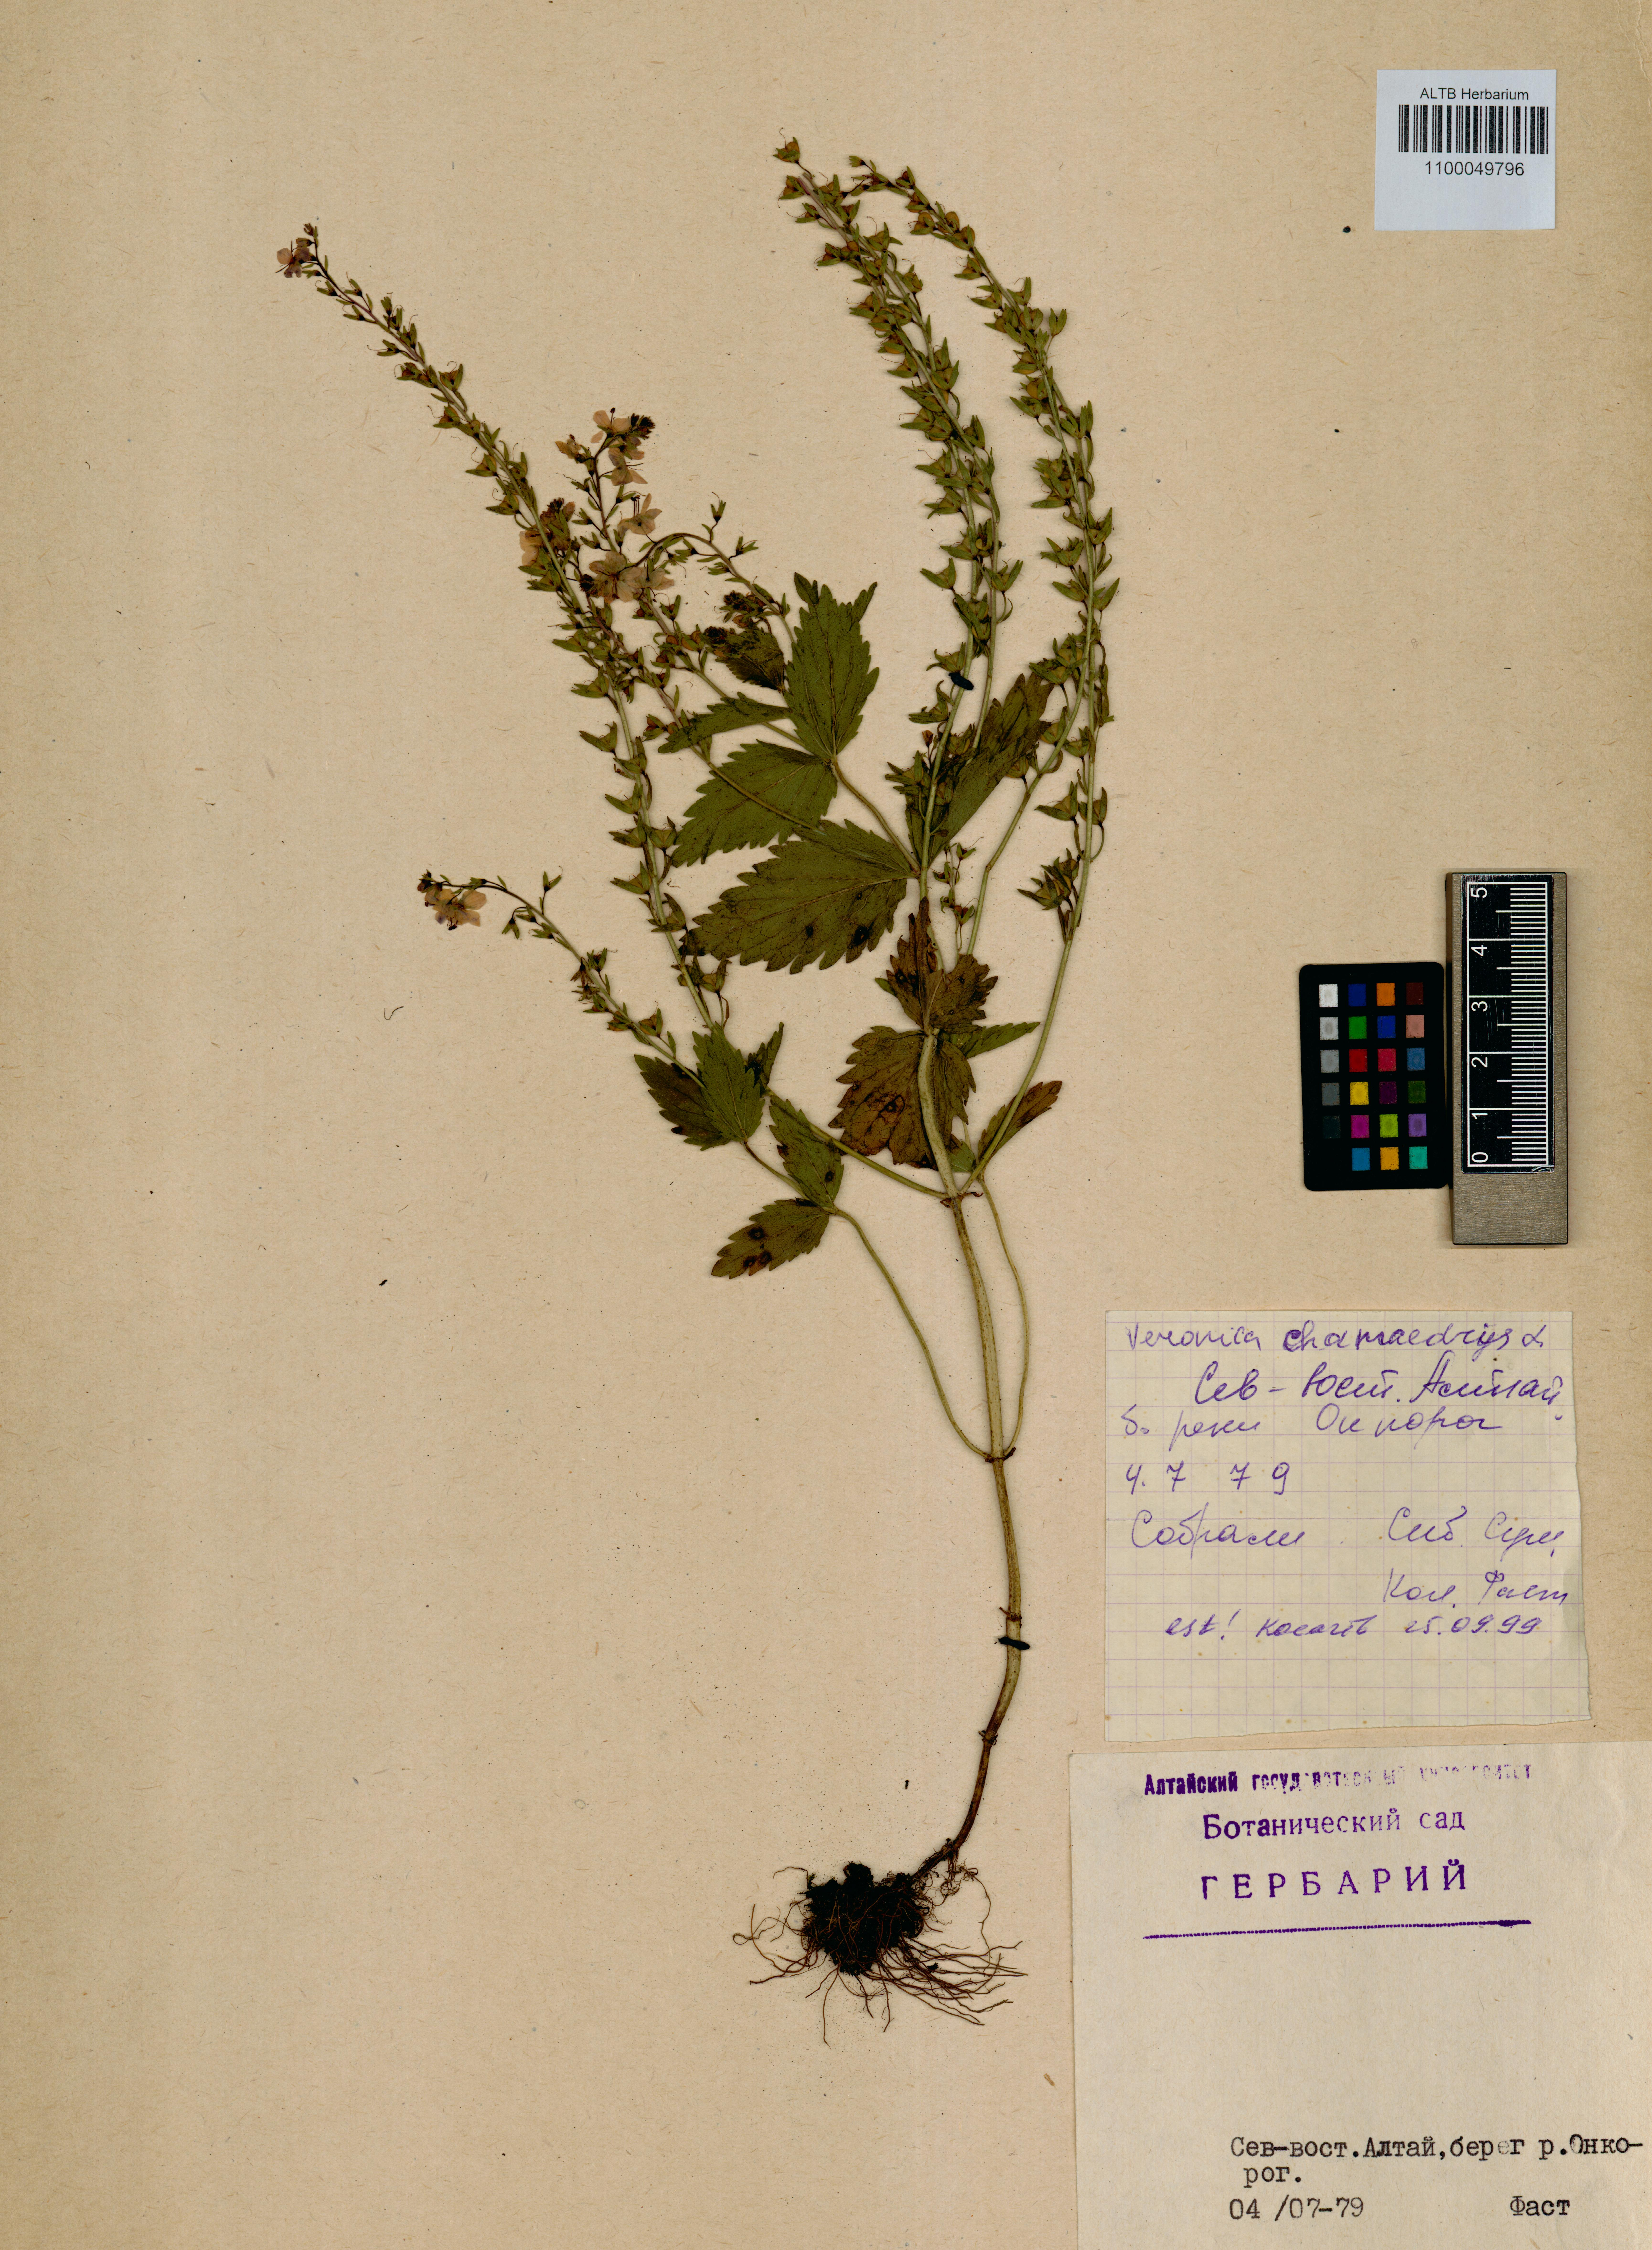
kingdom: Plantae
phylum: Tracheophyta
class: Magnoliopsida
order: Lamiales
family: Plantaginaceae
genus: Veronica
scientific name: Veronica chamaedrys
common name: Germander speedwell
